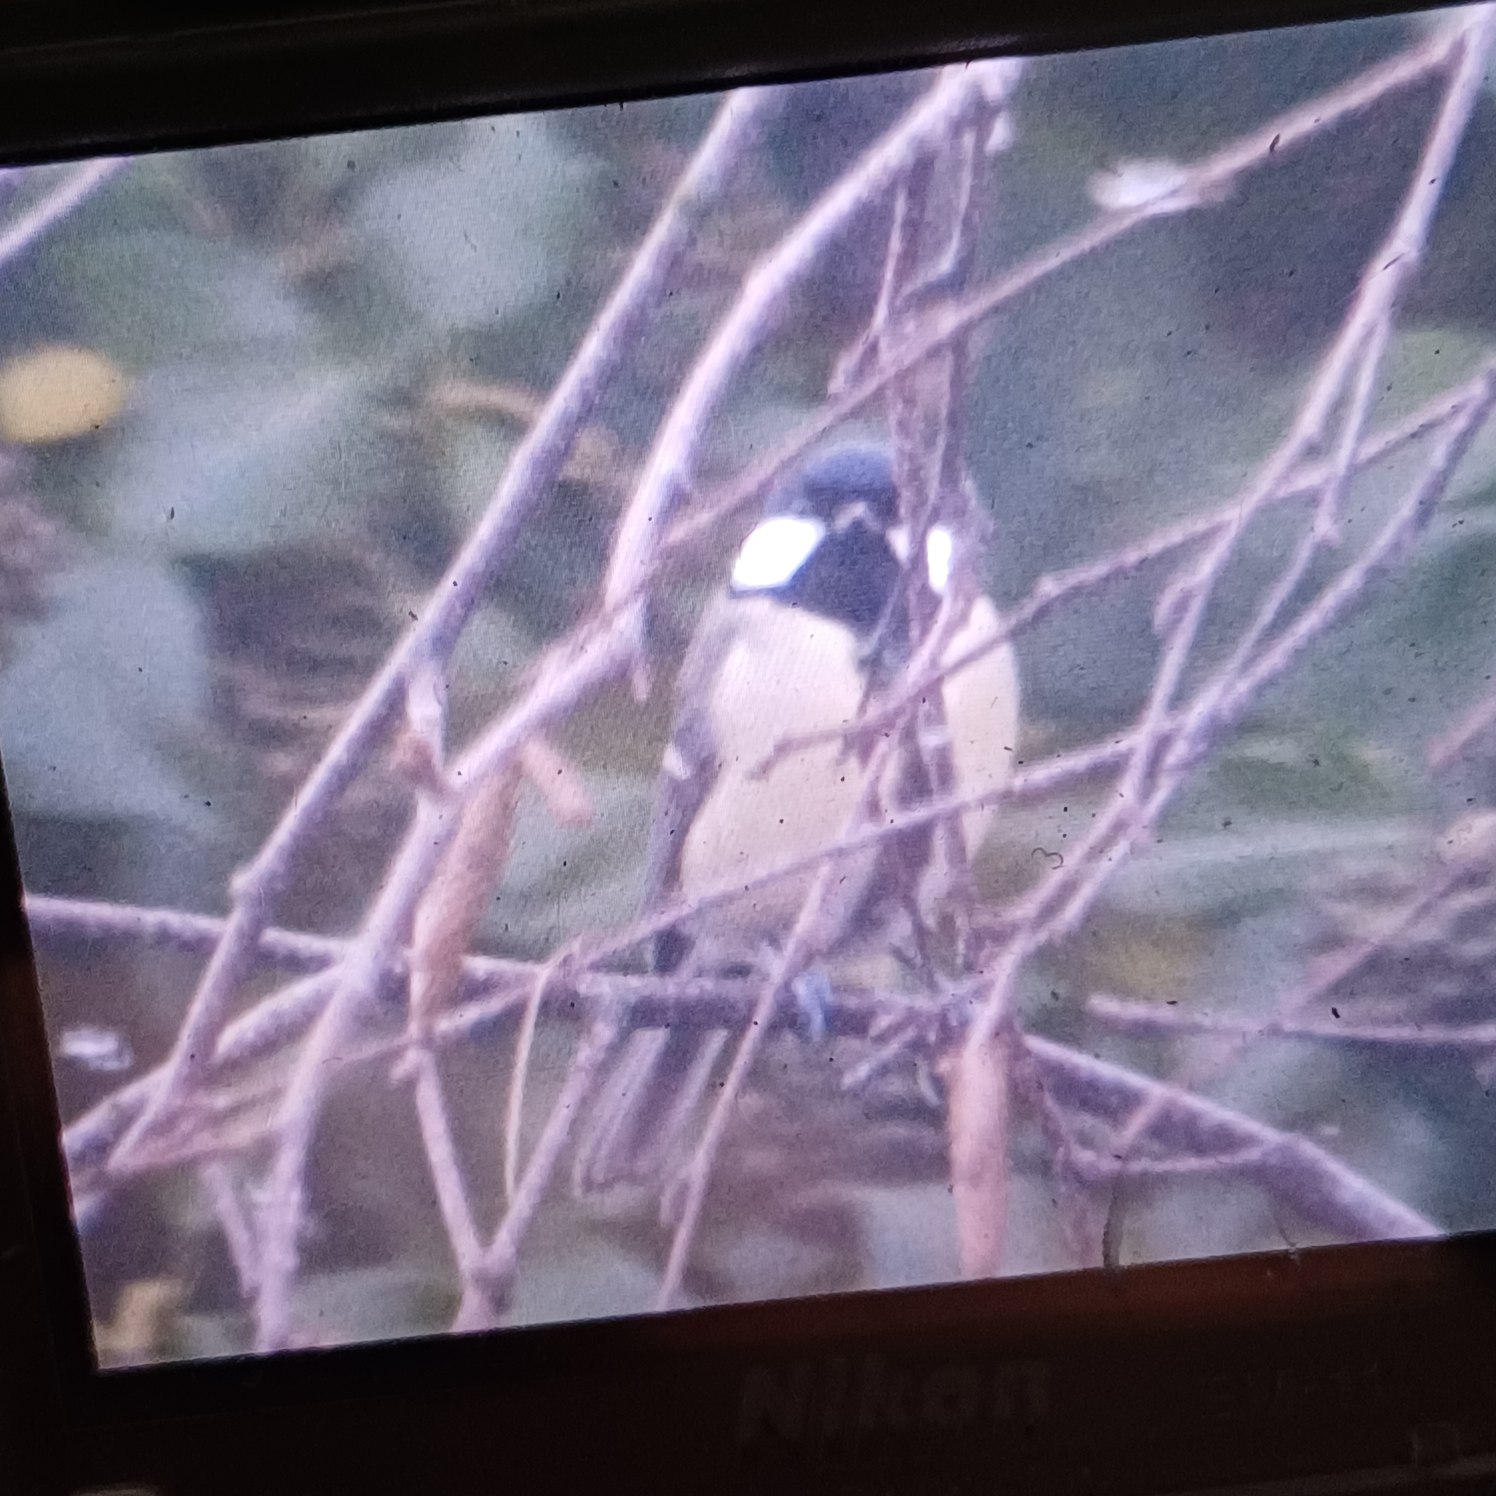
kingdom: Animalia
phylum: Chordata
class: Aves
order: Passeriformes
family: Paridae
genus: Parus
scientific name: Parus major
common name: Musvit
